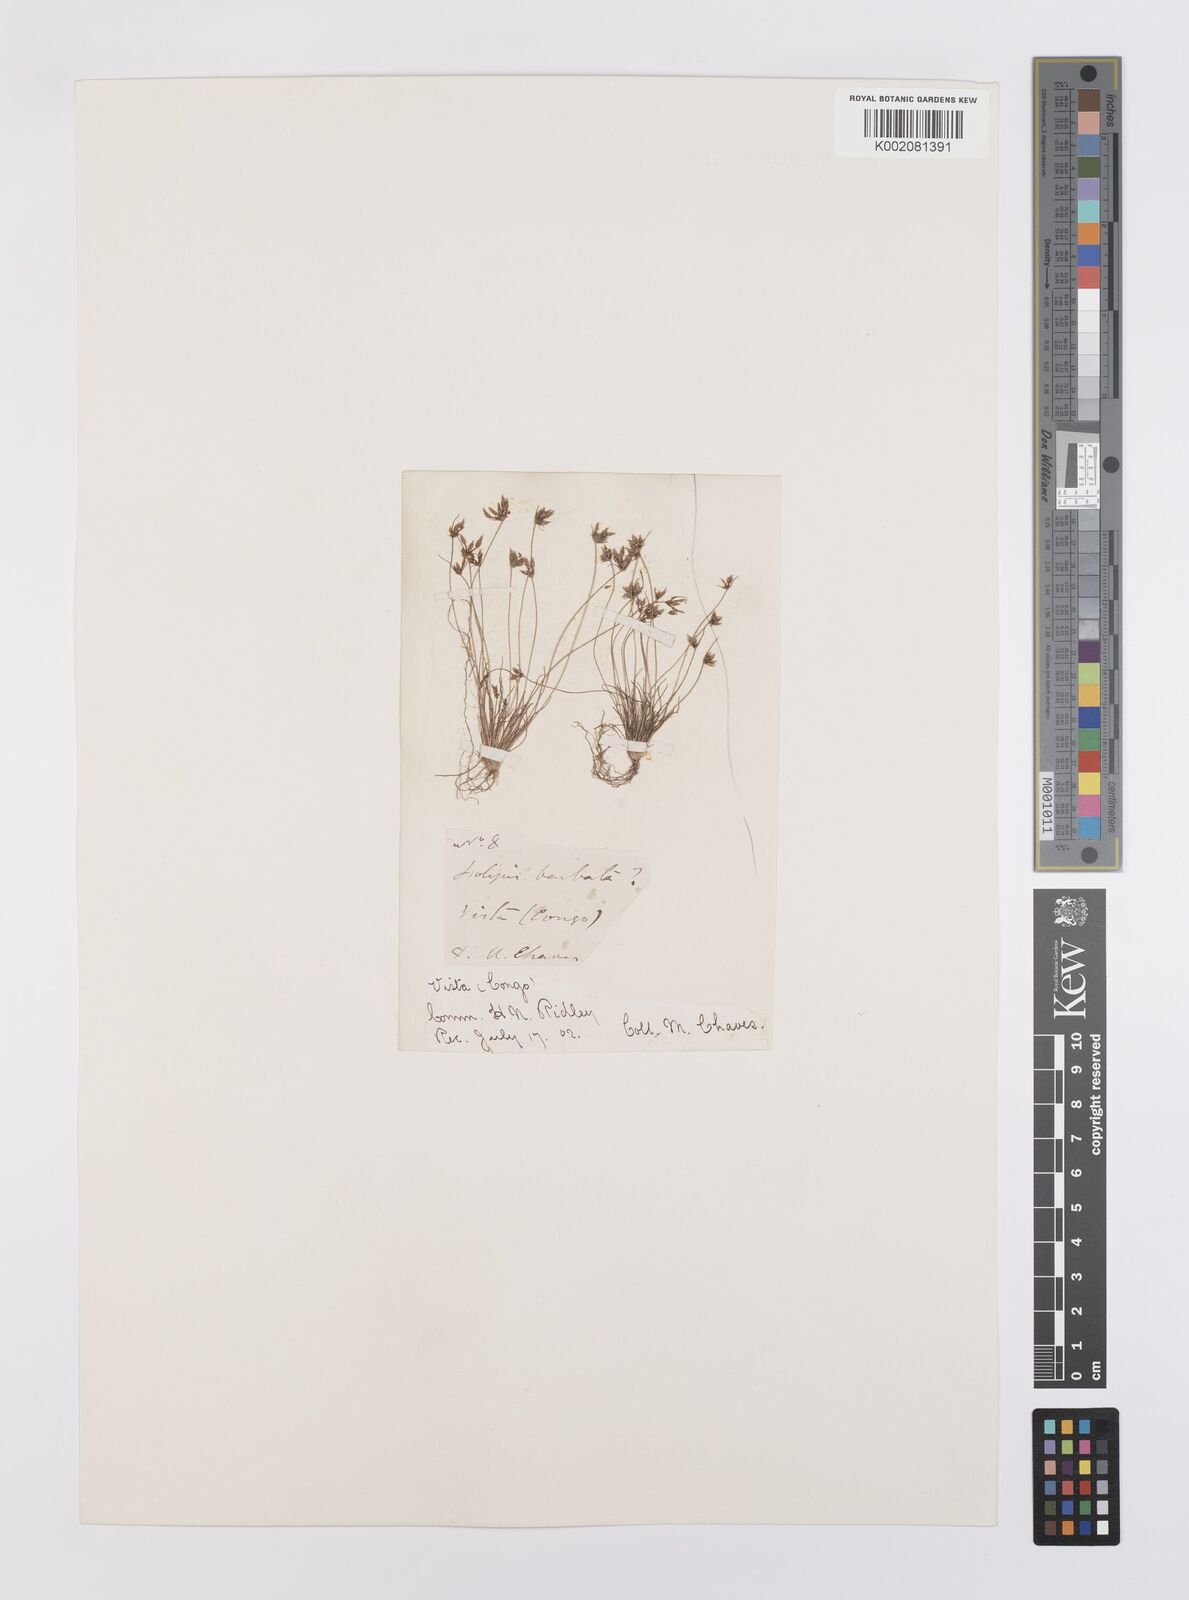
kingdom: Plantae
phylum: Tracheophyta
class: Liliopsida
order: Poales
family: Cyperaceae
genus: Bulbostylis
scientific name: Bulbostylis barbata
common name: Watergrass
